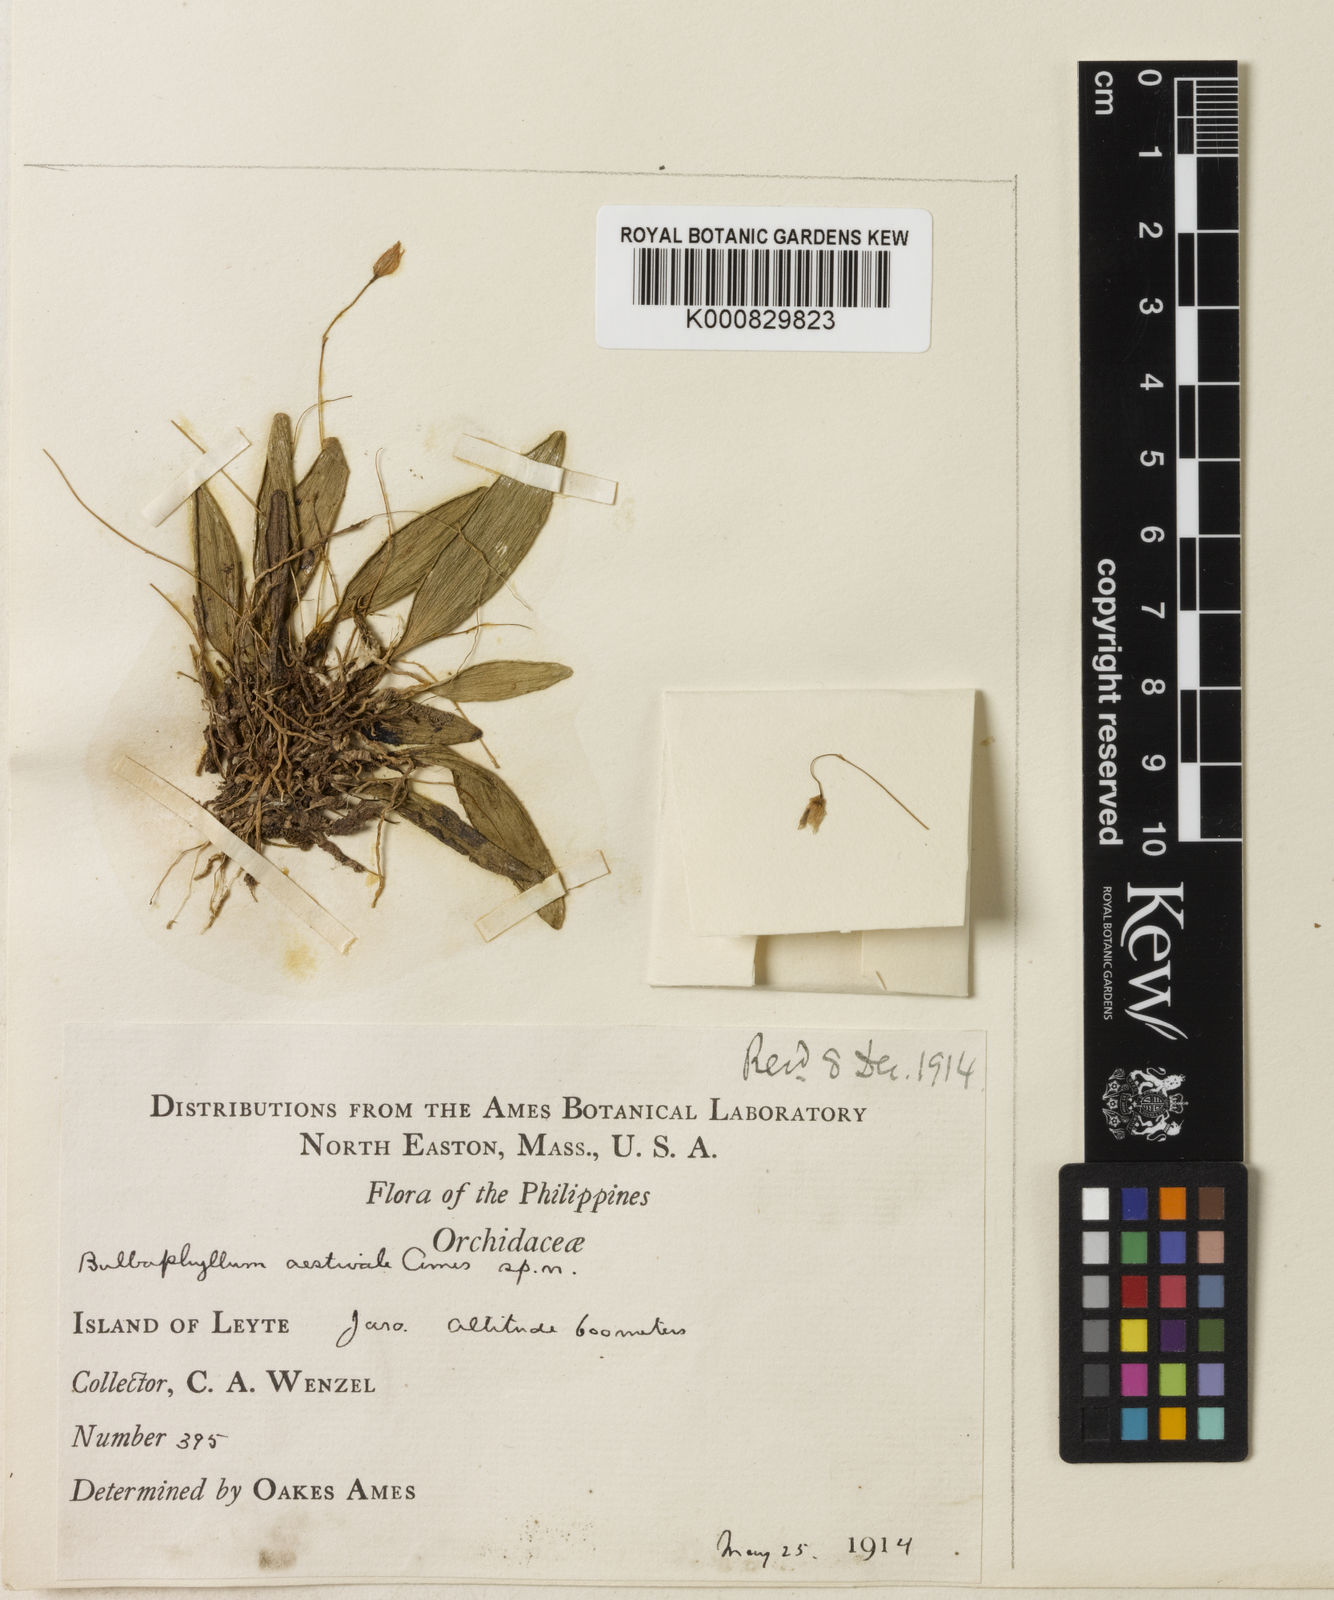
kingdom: Plantae
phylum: Tracheophyta
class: Liliopsida
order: Asparagales
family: Orchidaceae
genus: Bulbophyllum
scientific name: Bulbophyllum aestivale
